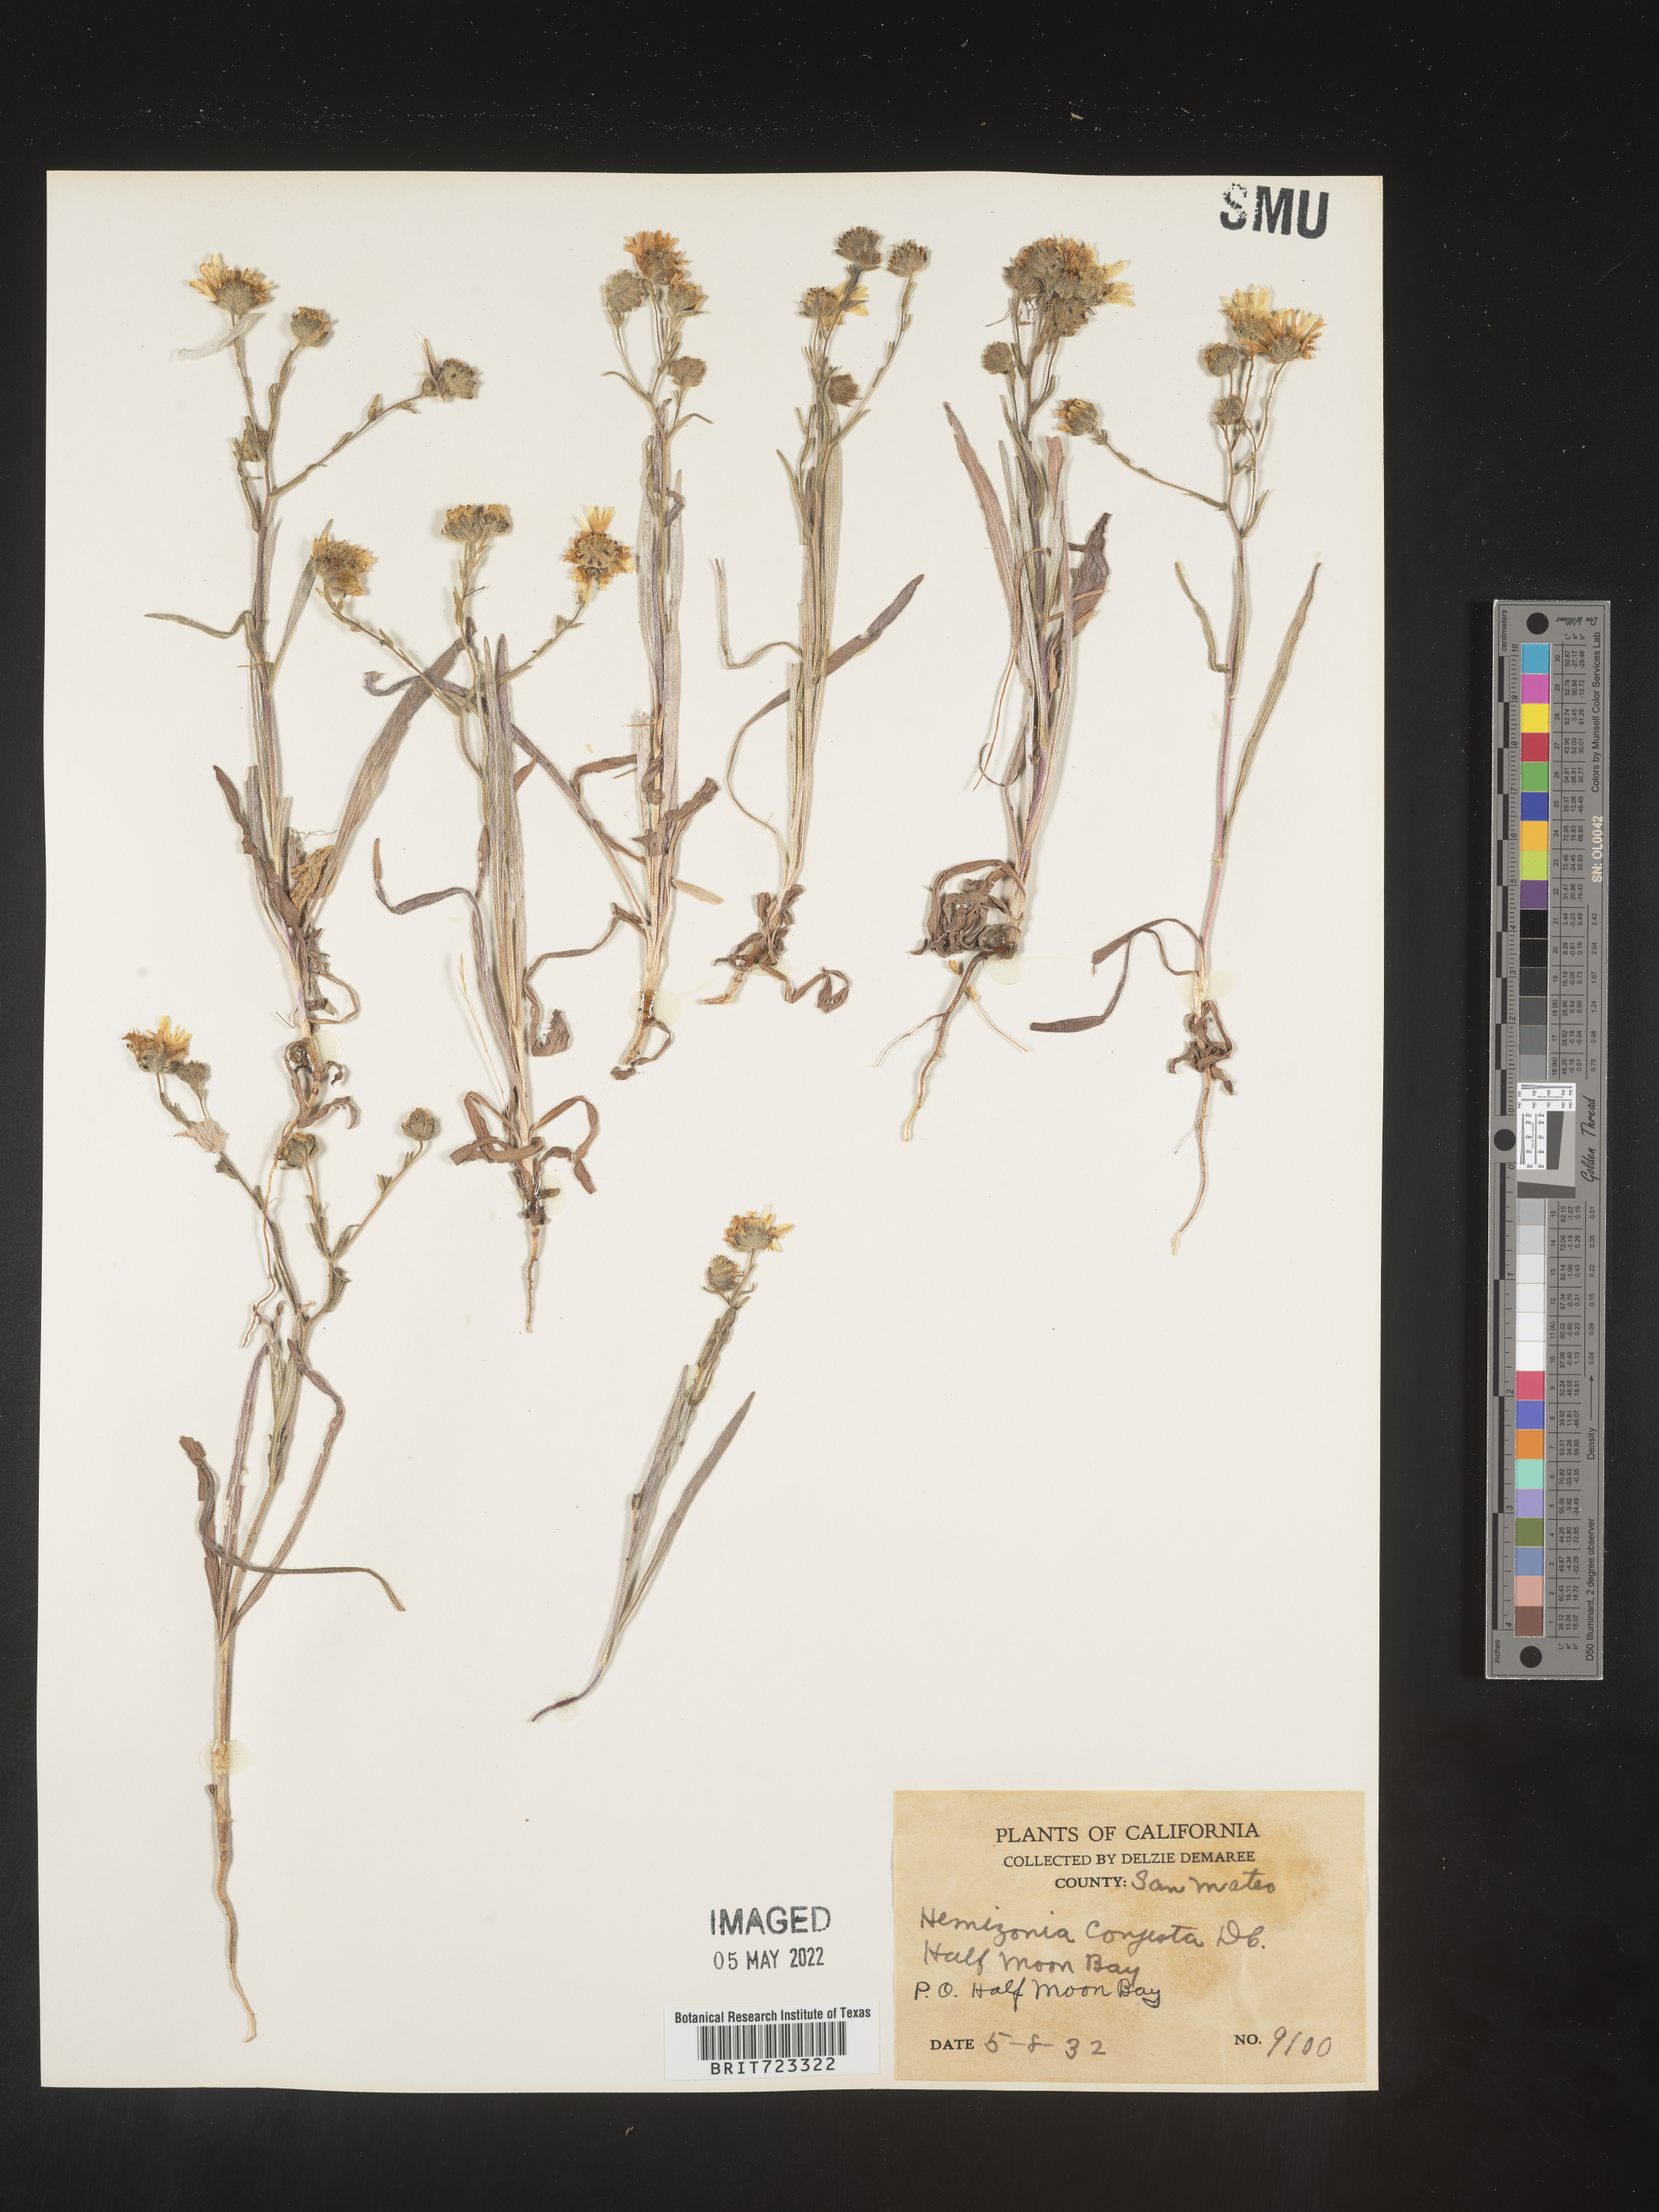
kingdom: Plantae
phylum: Tracheophyta
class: Magnoliopsida
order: Asterales
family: Asteraceae
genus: Hemizonia
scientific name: Hemizonia
